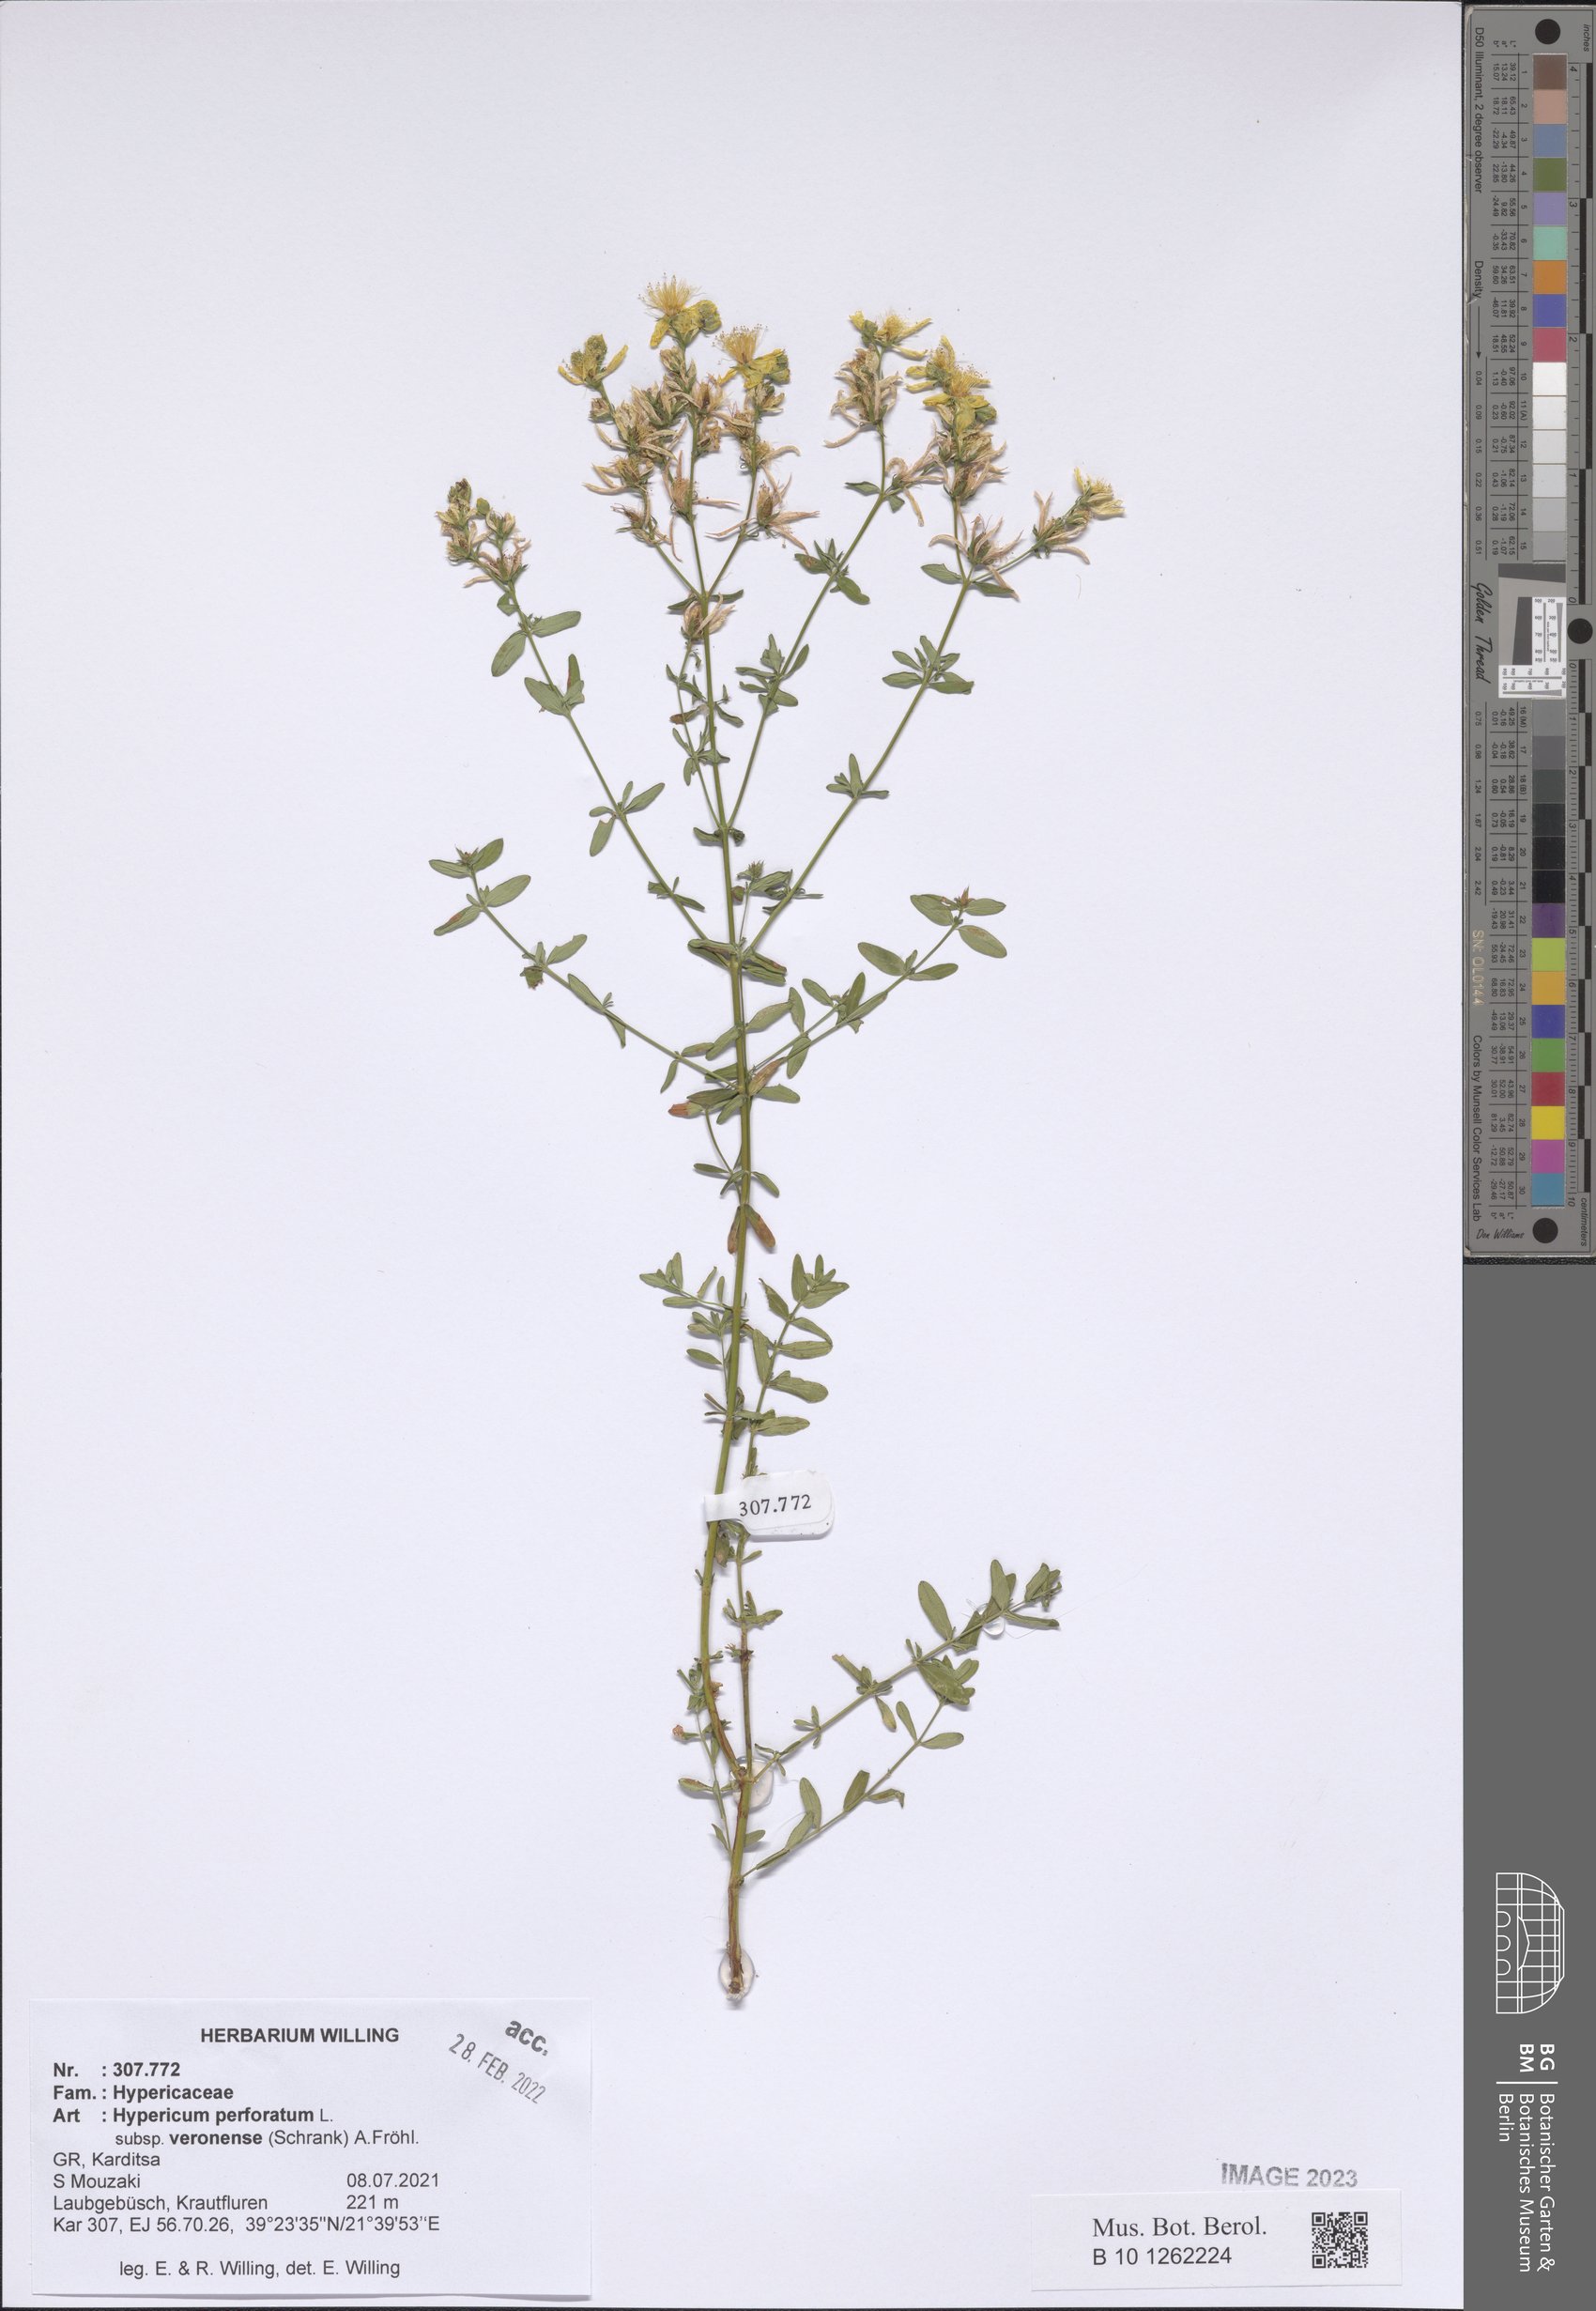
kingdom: Plantae
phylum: Tracheophyta
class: Magnoliopsida
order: Malpighiales
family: Hypericaceae
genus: Hypericum
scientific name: Hypericum veronense
